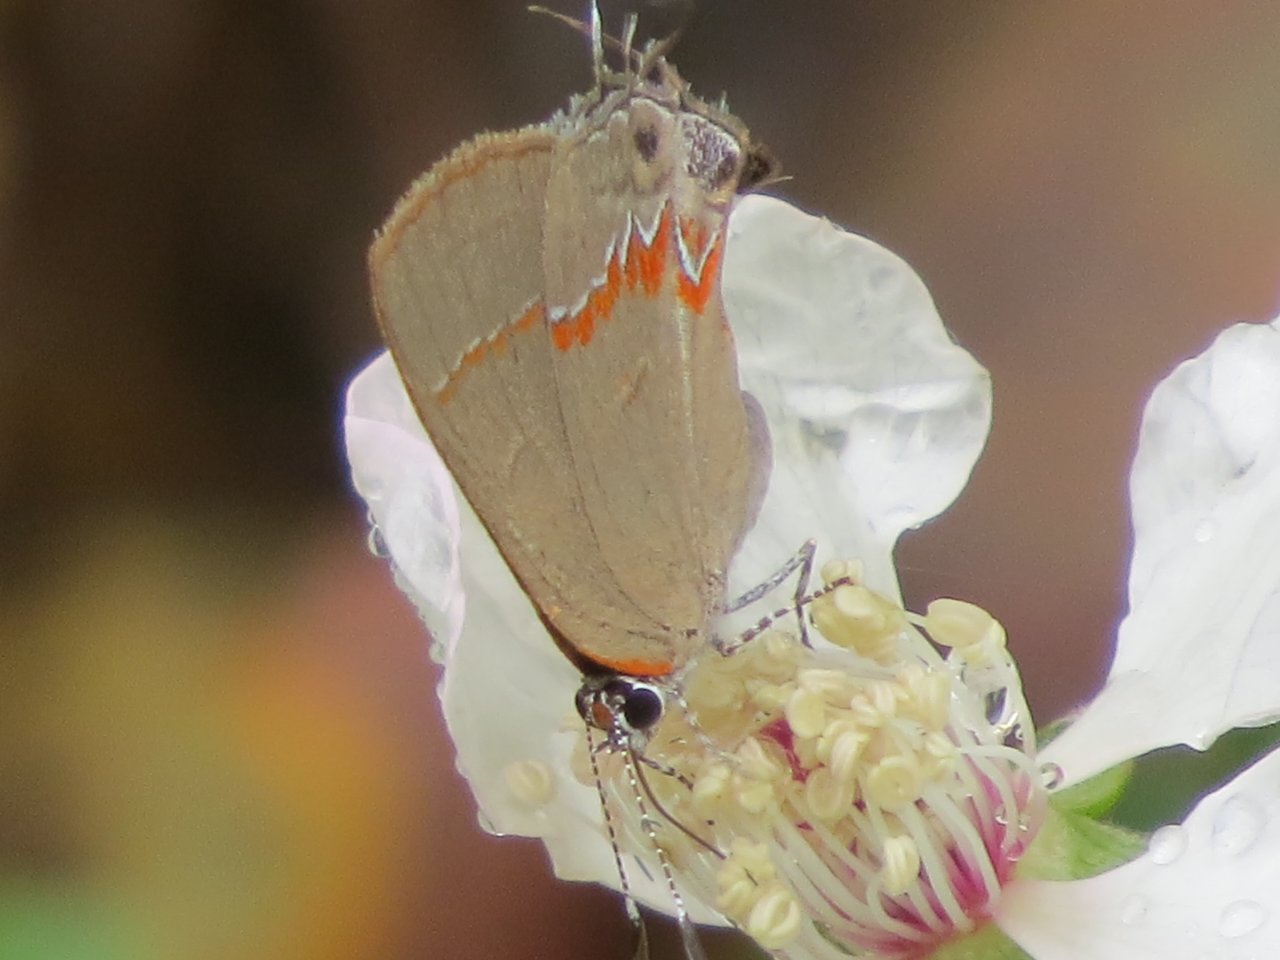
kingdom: Animalia
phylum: Arthropoda
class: Insecta
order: Lepidoptera
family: Lycaenidae
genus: Calycopis
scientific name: Calycopis cecrops
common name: Red-banded Hairstreak
